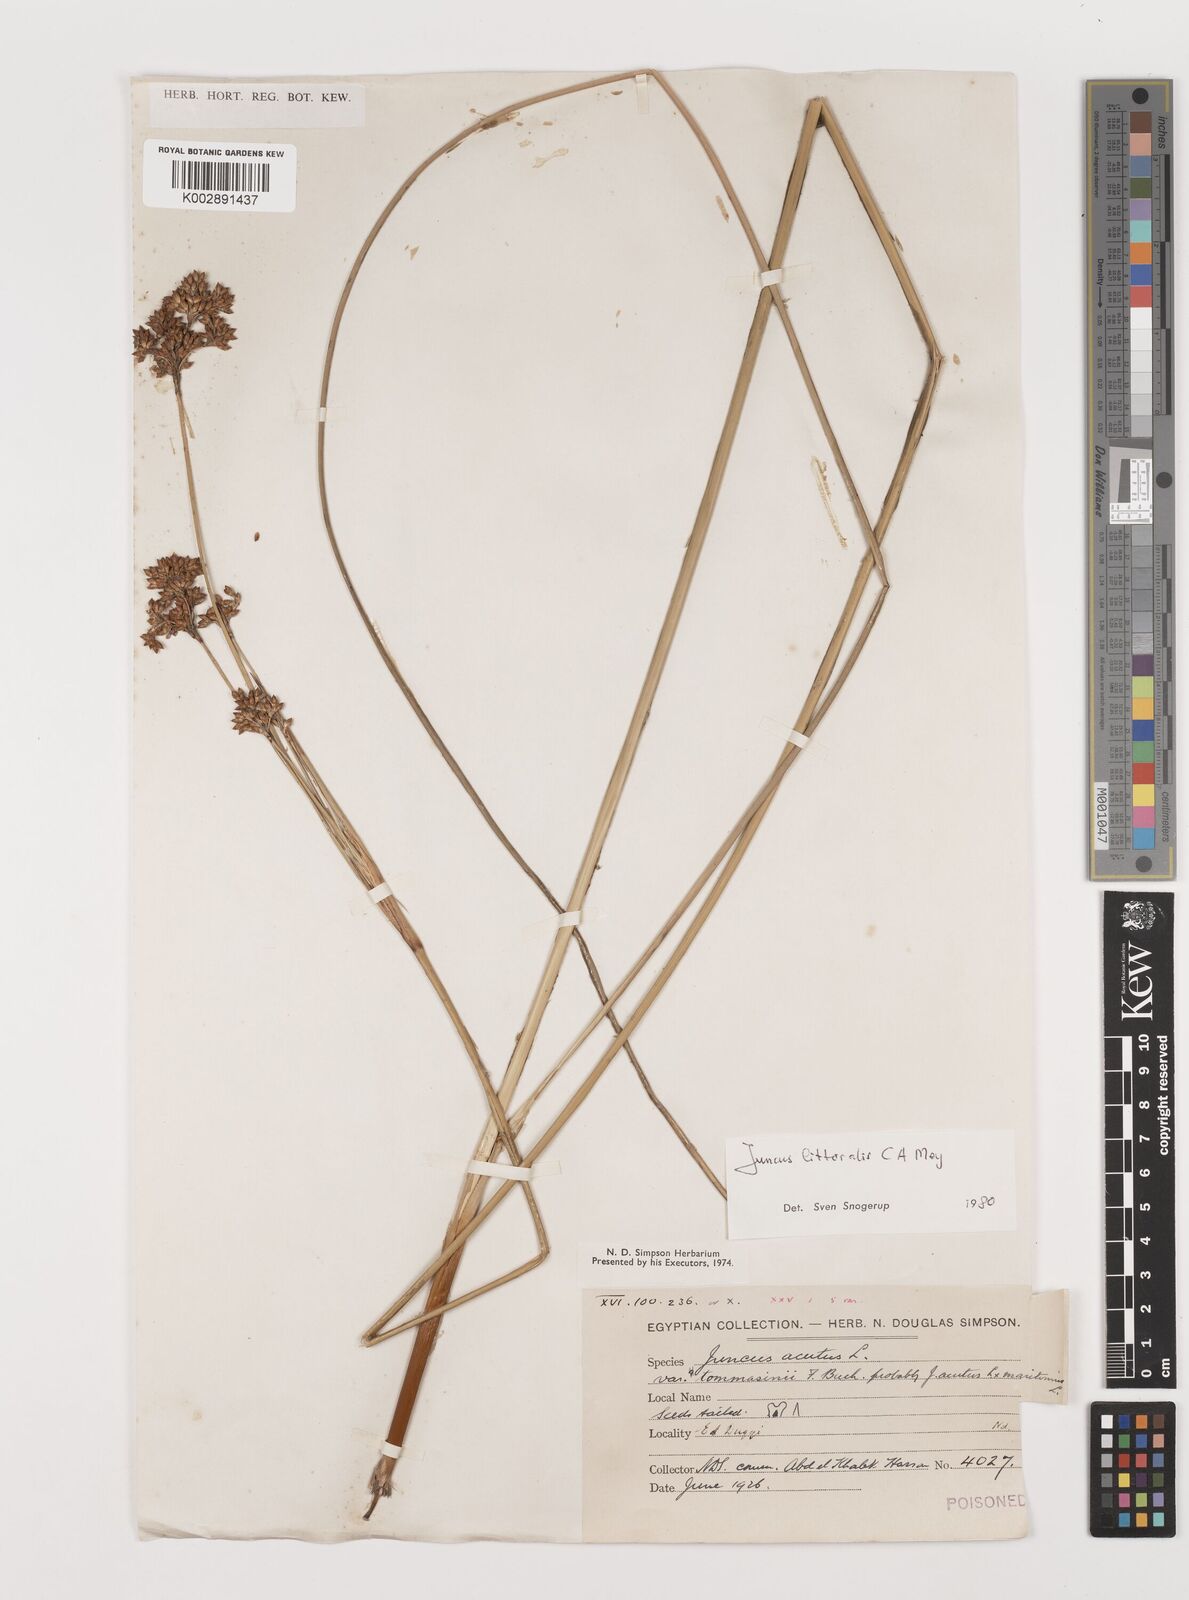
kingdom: Plantae
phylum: Tracheophyta
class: Liliopsida
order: Poales
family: Juncaceae
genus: Juncus
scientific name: Juncus littoralis
